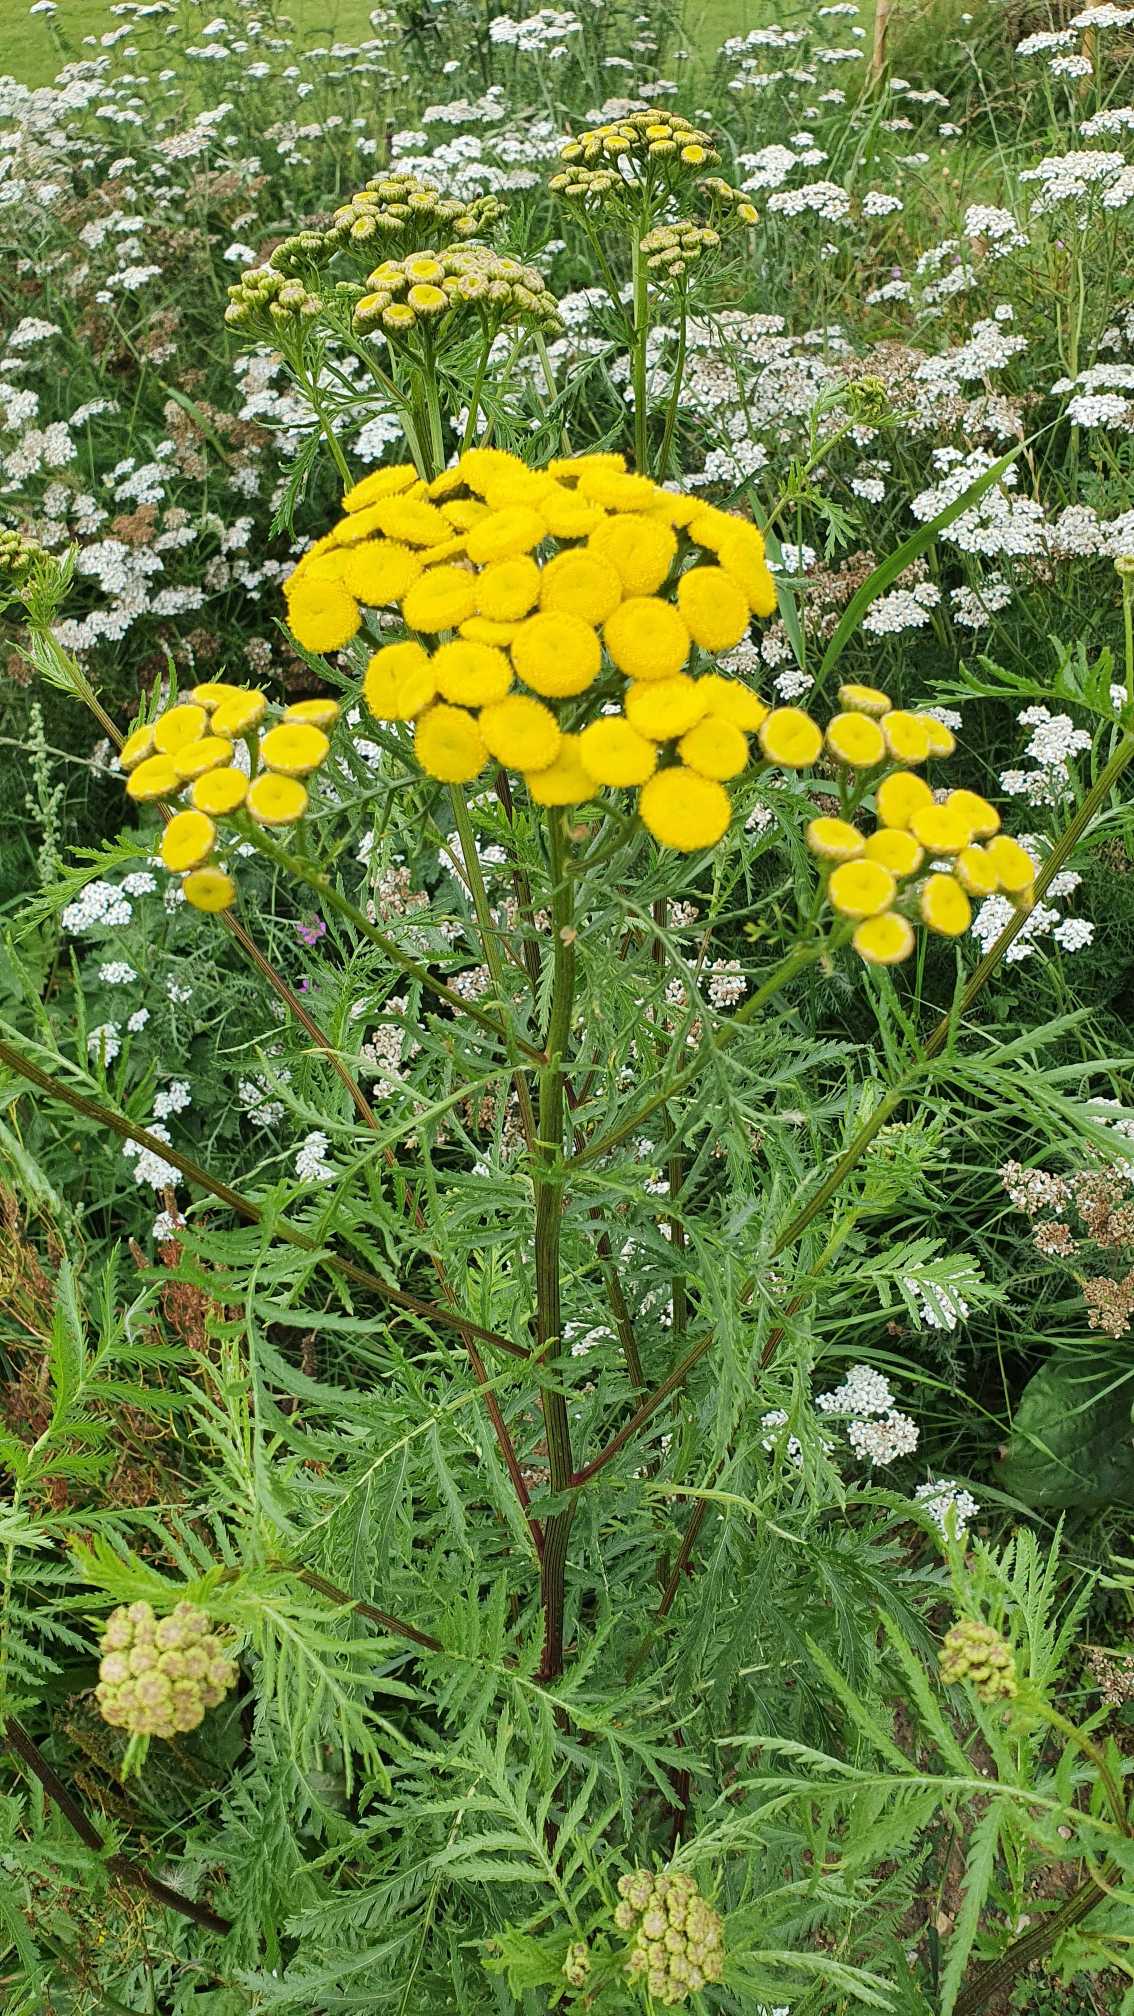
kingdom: Plantae
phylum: Tracheophyta
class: Magnoliopsida
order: Asterales
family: Asteraceae
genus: Tanacetum
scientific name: Tanacetum vulgare
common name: Rejnfan
